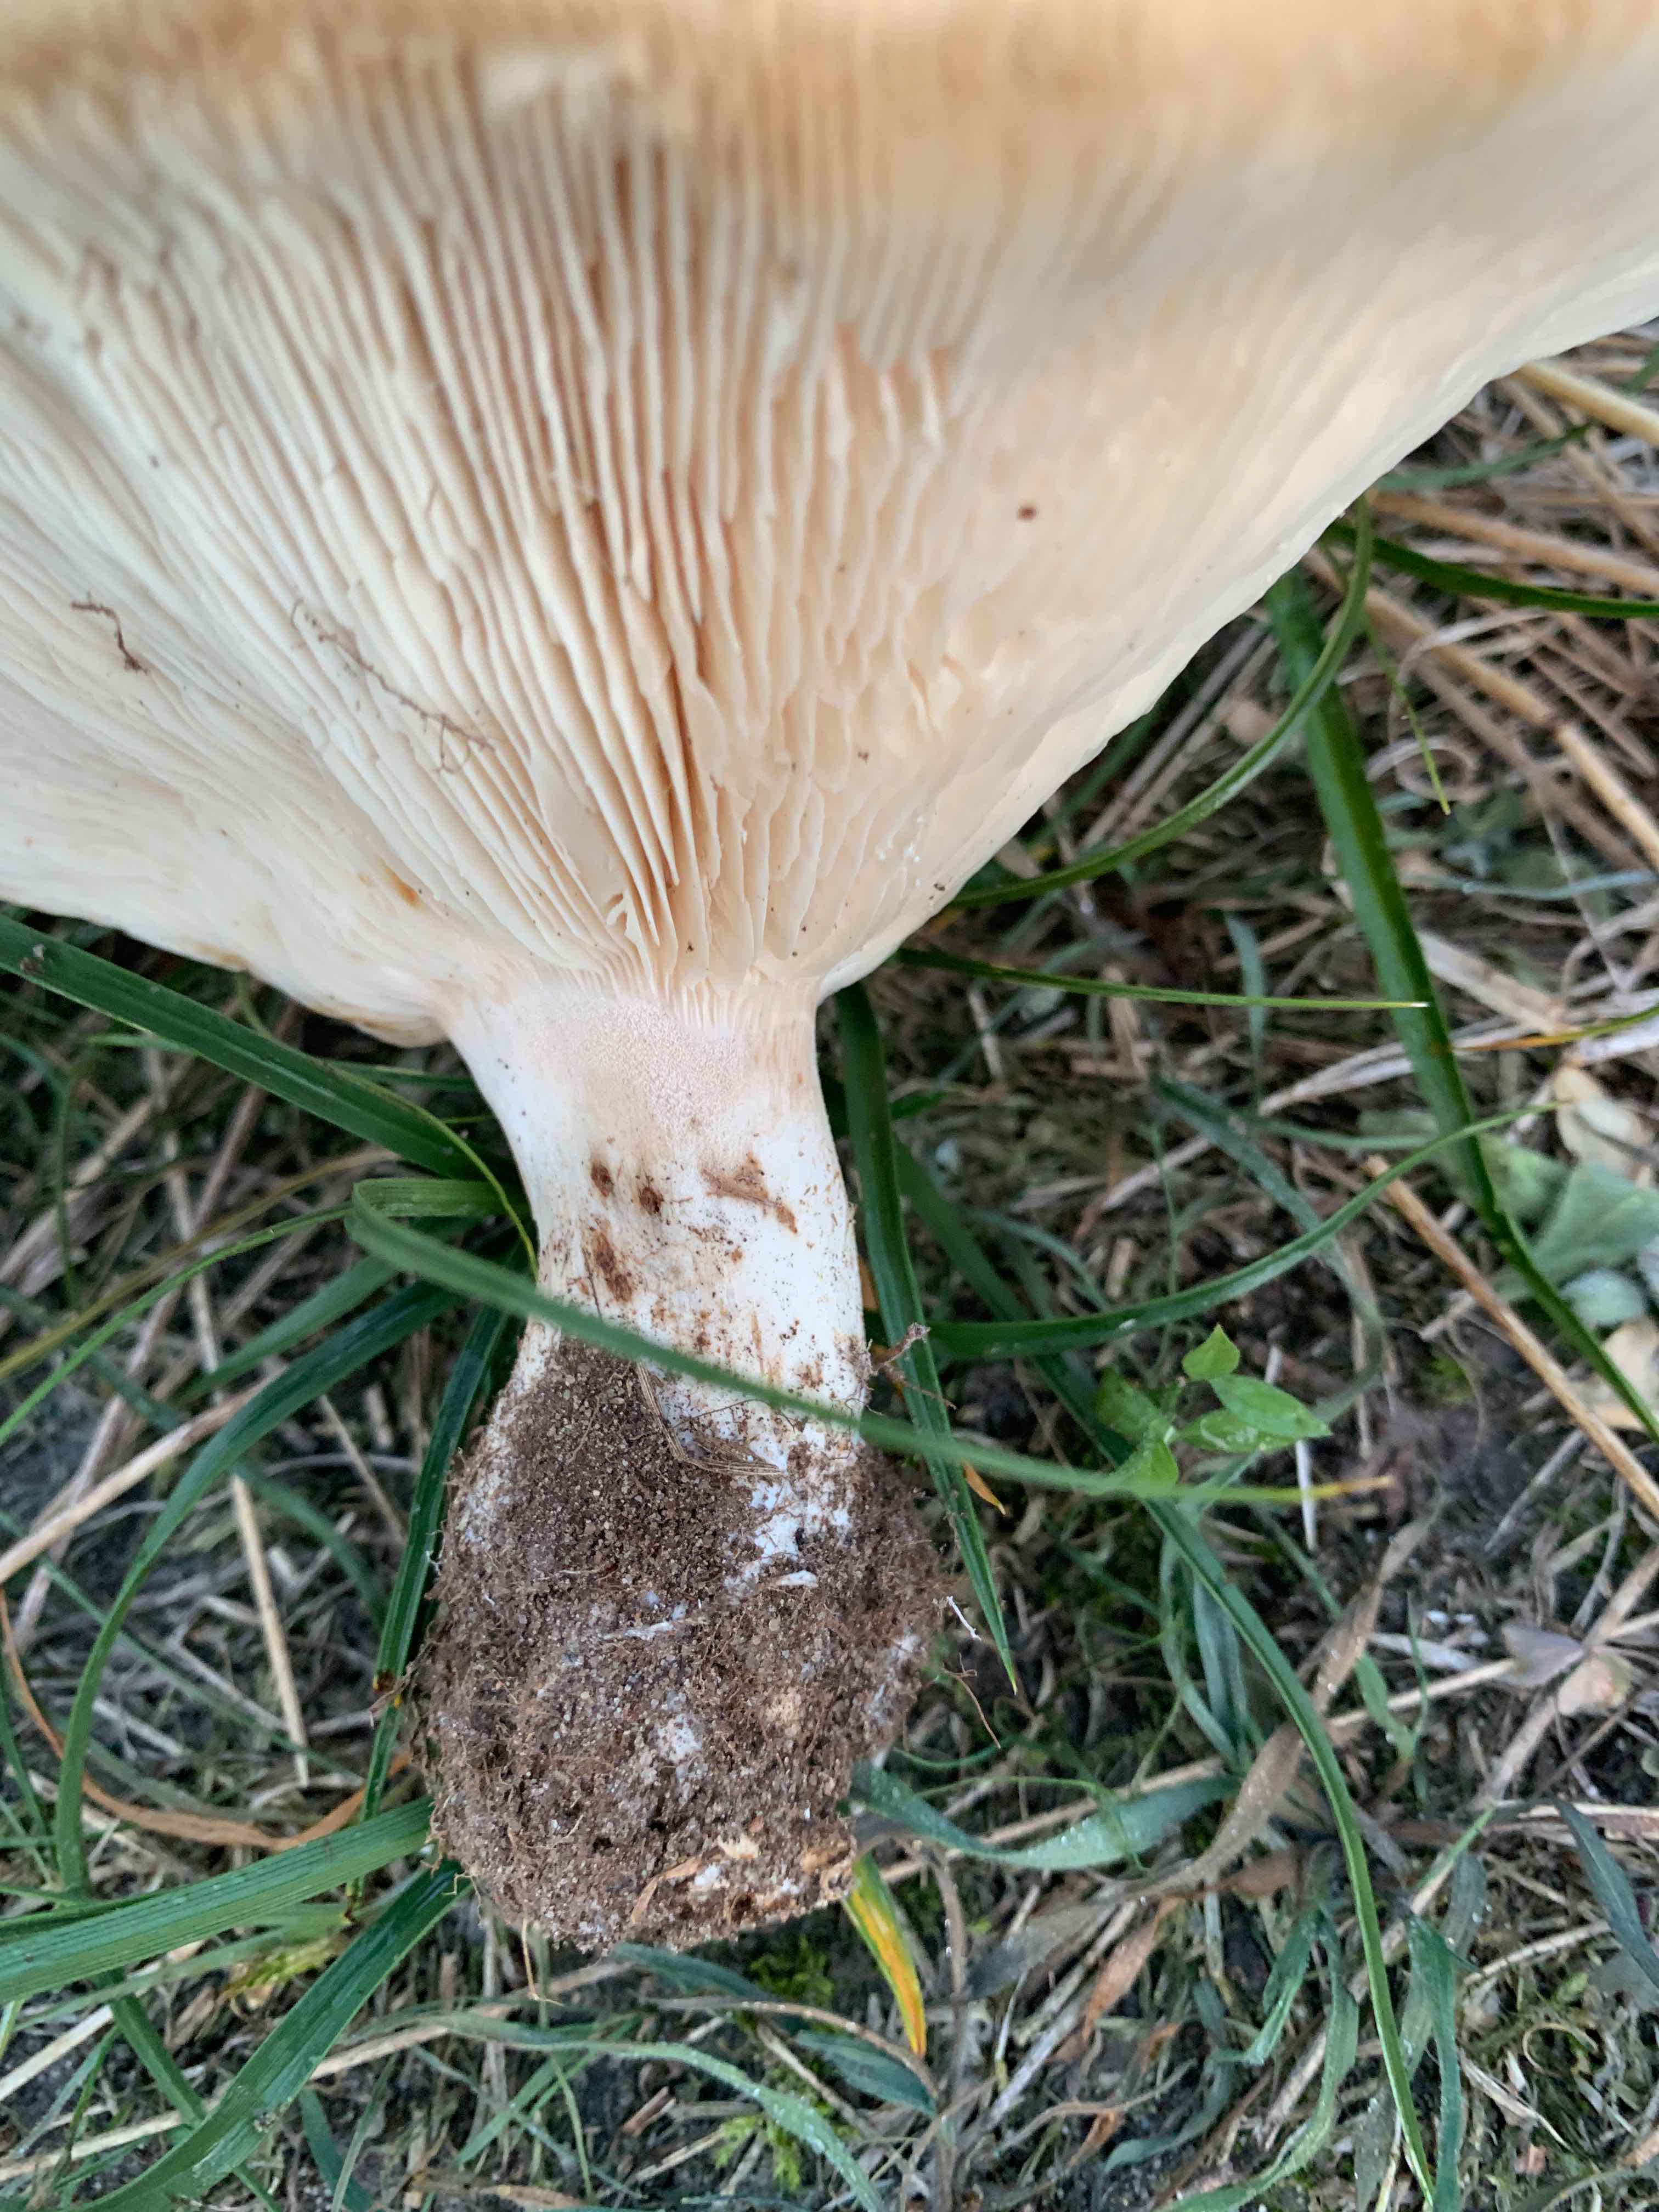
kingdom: Fungi
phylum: Basidiomycota
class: Agaricomycetes
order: Agaricales
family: Tricholomataceae
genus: Aspropaxillus
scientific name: Aspropaxillus giganteus
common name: kæmpe-tragtridderhat
